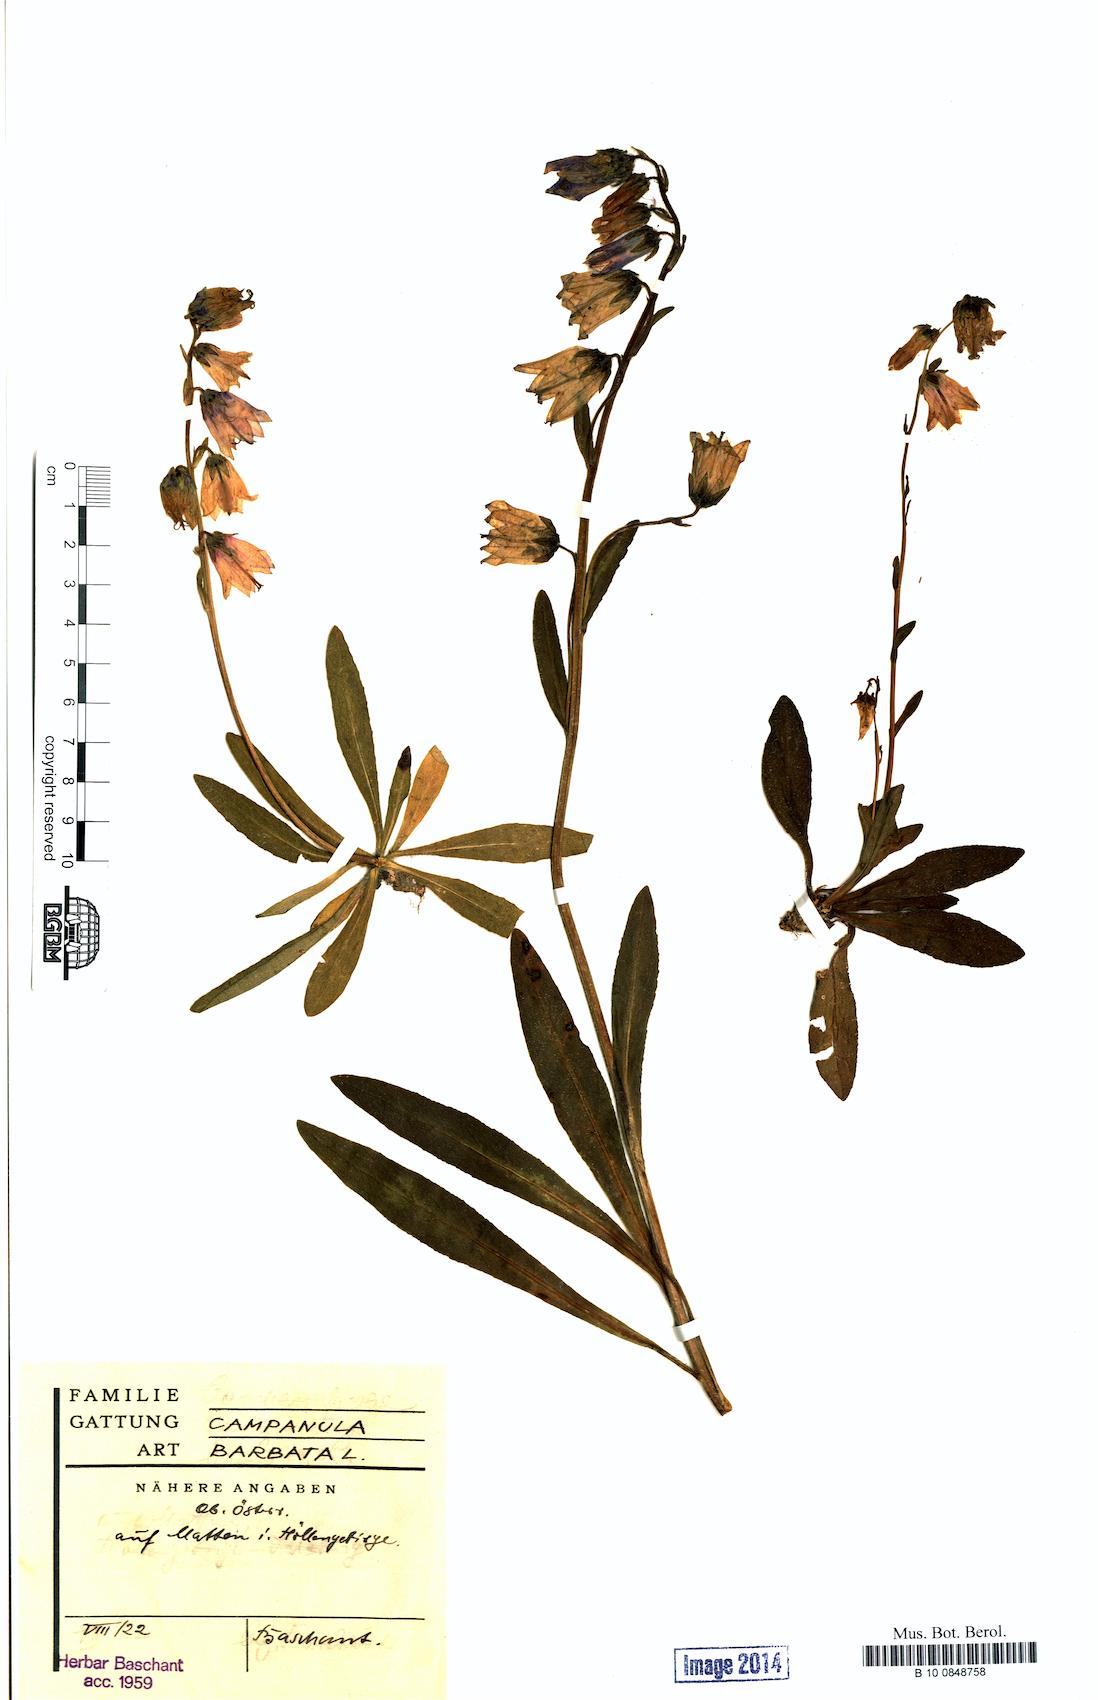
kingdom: Plantae
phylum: Tracheophyta
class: Magnoliopsida
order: Asterales
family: Campanulaceae
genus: Campanula
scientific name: Campanula barbata
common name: Bearded bellflower
